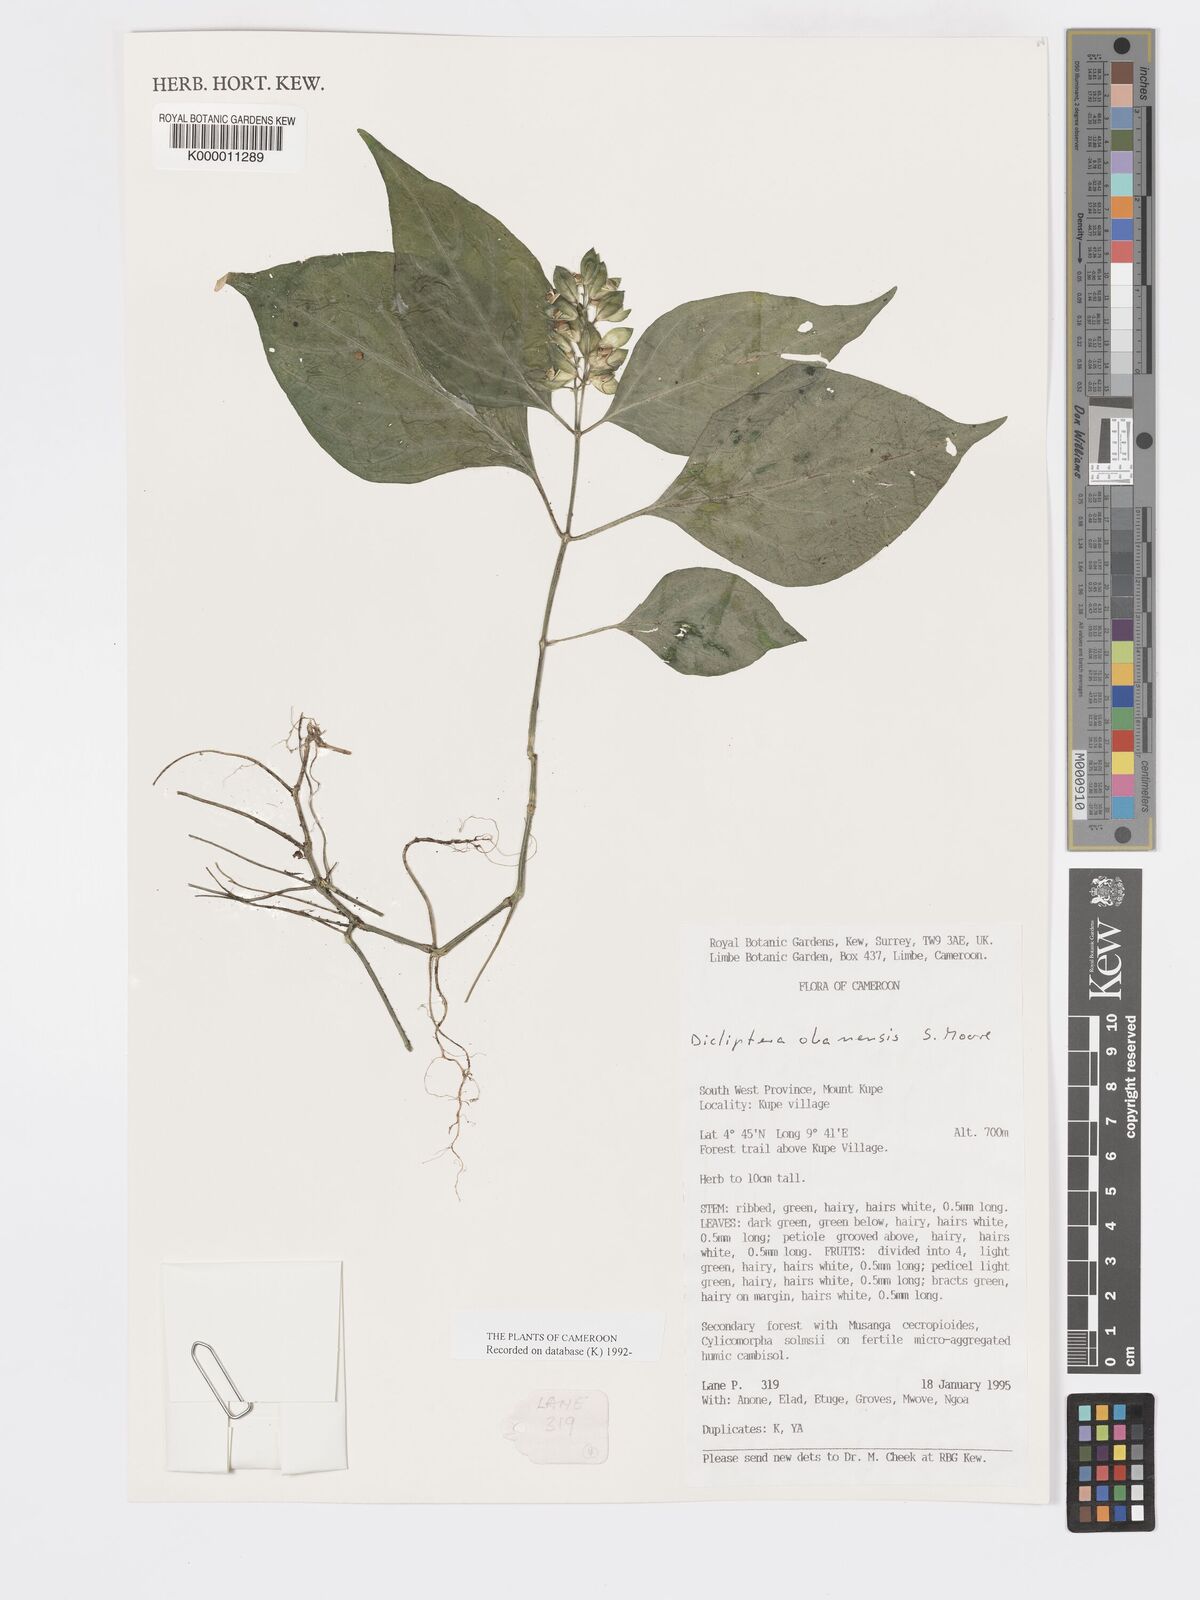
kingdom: Plantae
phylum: Tracheophyta
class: Magnoliopsida
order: Lamiales
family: Acanthaceae
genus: Dicliptera
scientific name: Dicliptera elliotii
